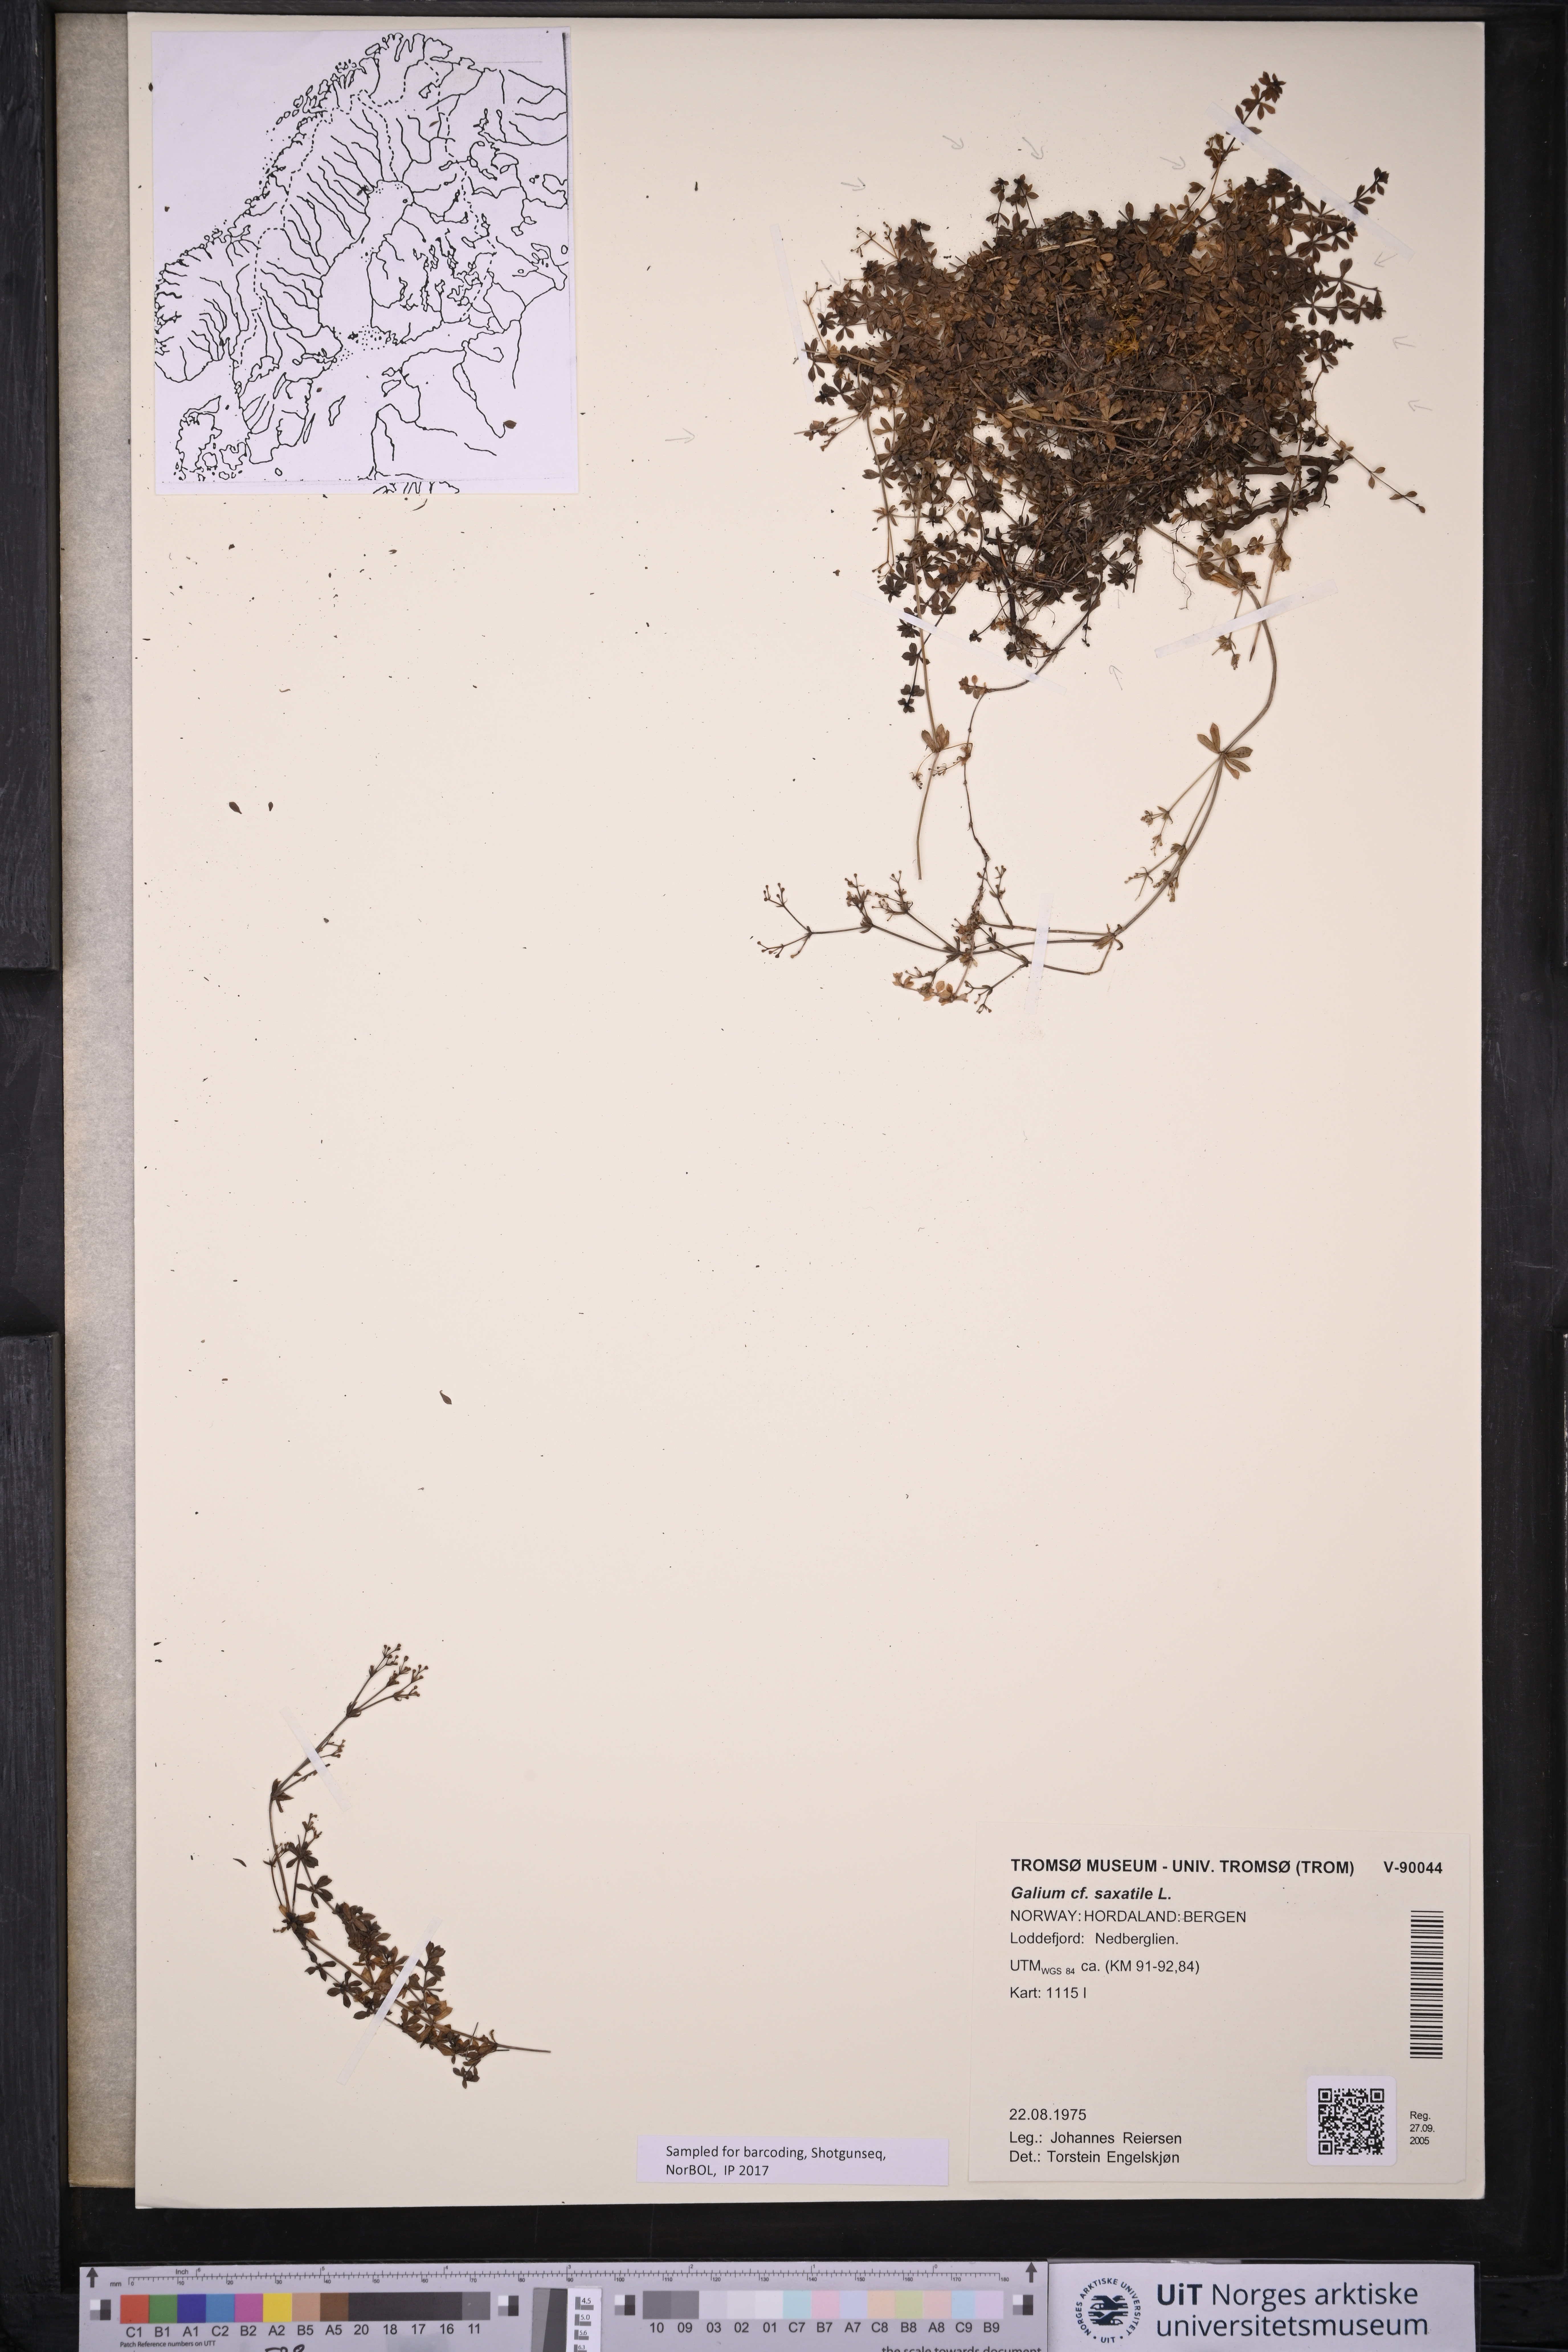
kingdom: Plantae
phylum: Tracheophyta
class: Magnoliopsida
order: Gentianales
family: Rubiaceae
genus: Galium
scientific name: Galium saxatile
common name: Heath bedstraw
